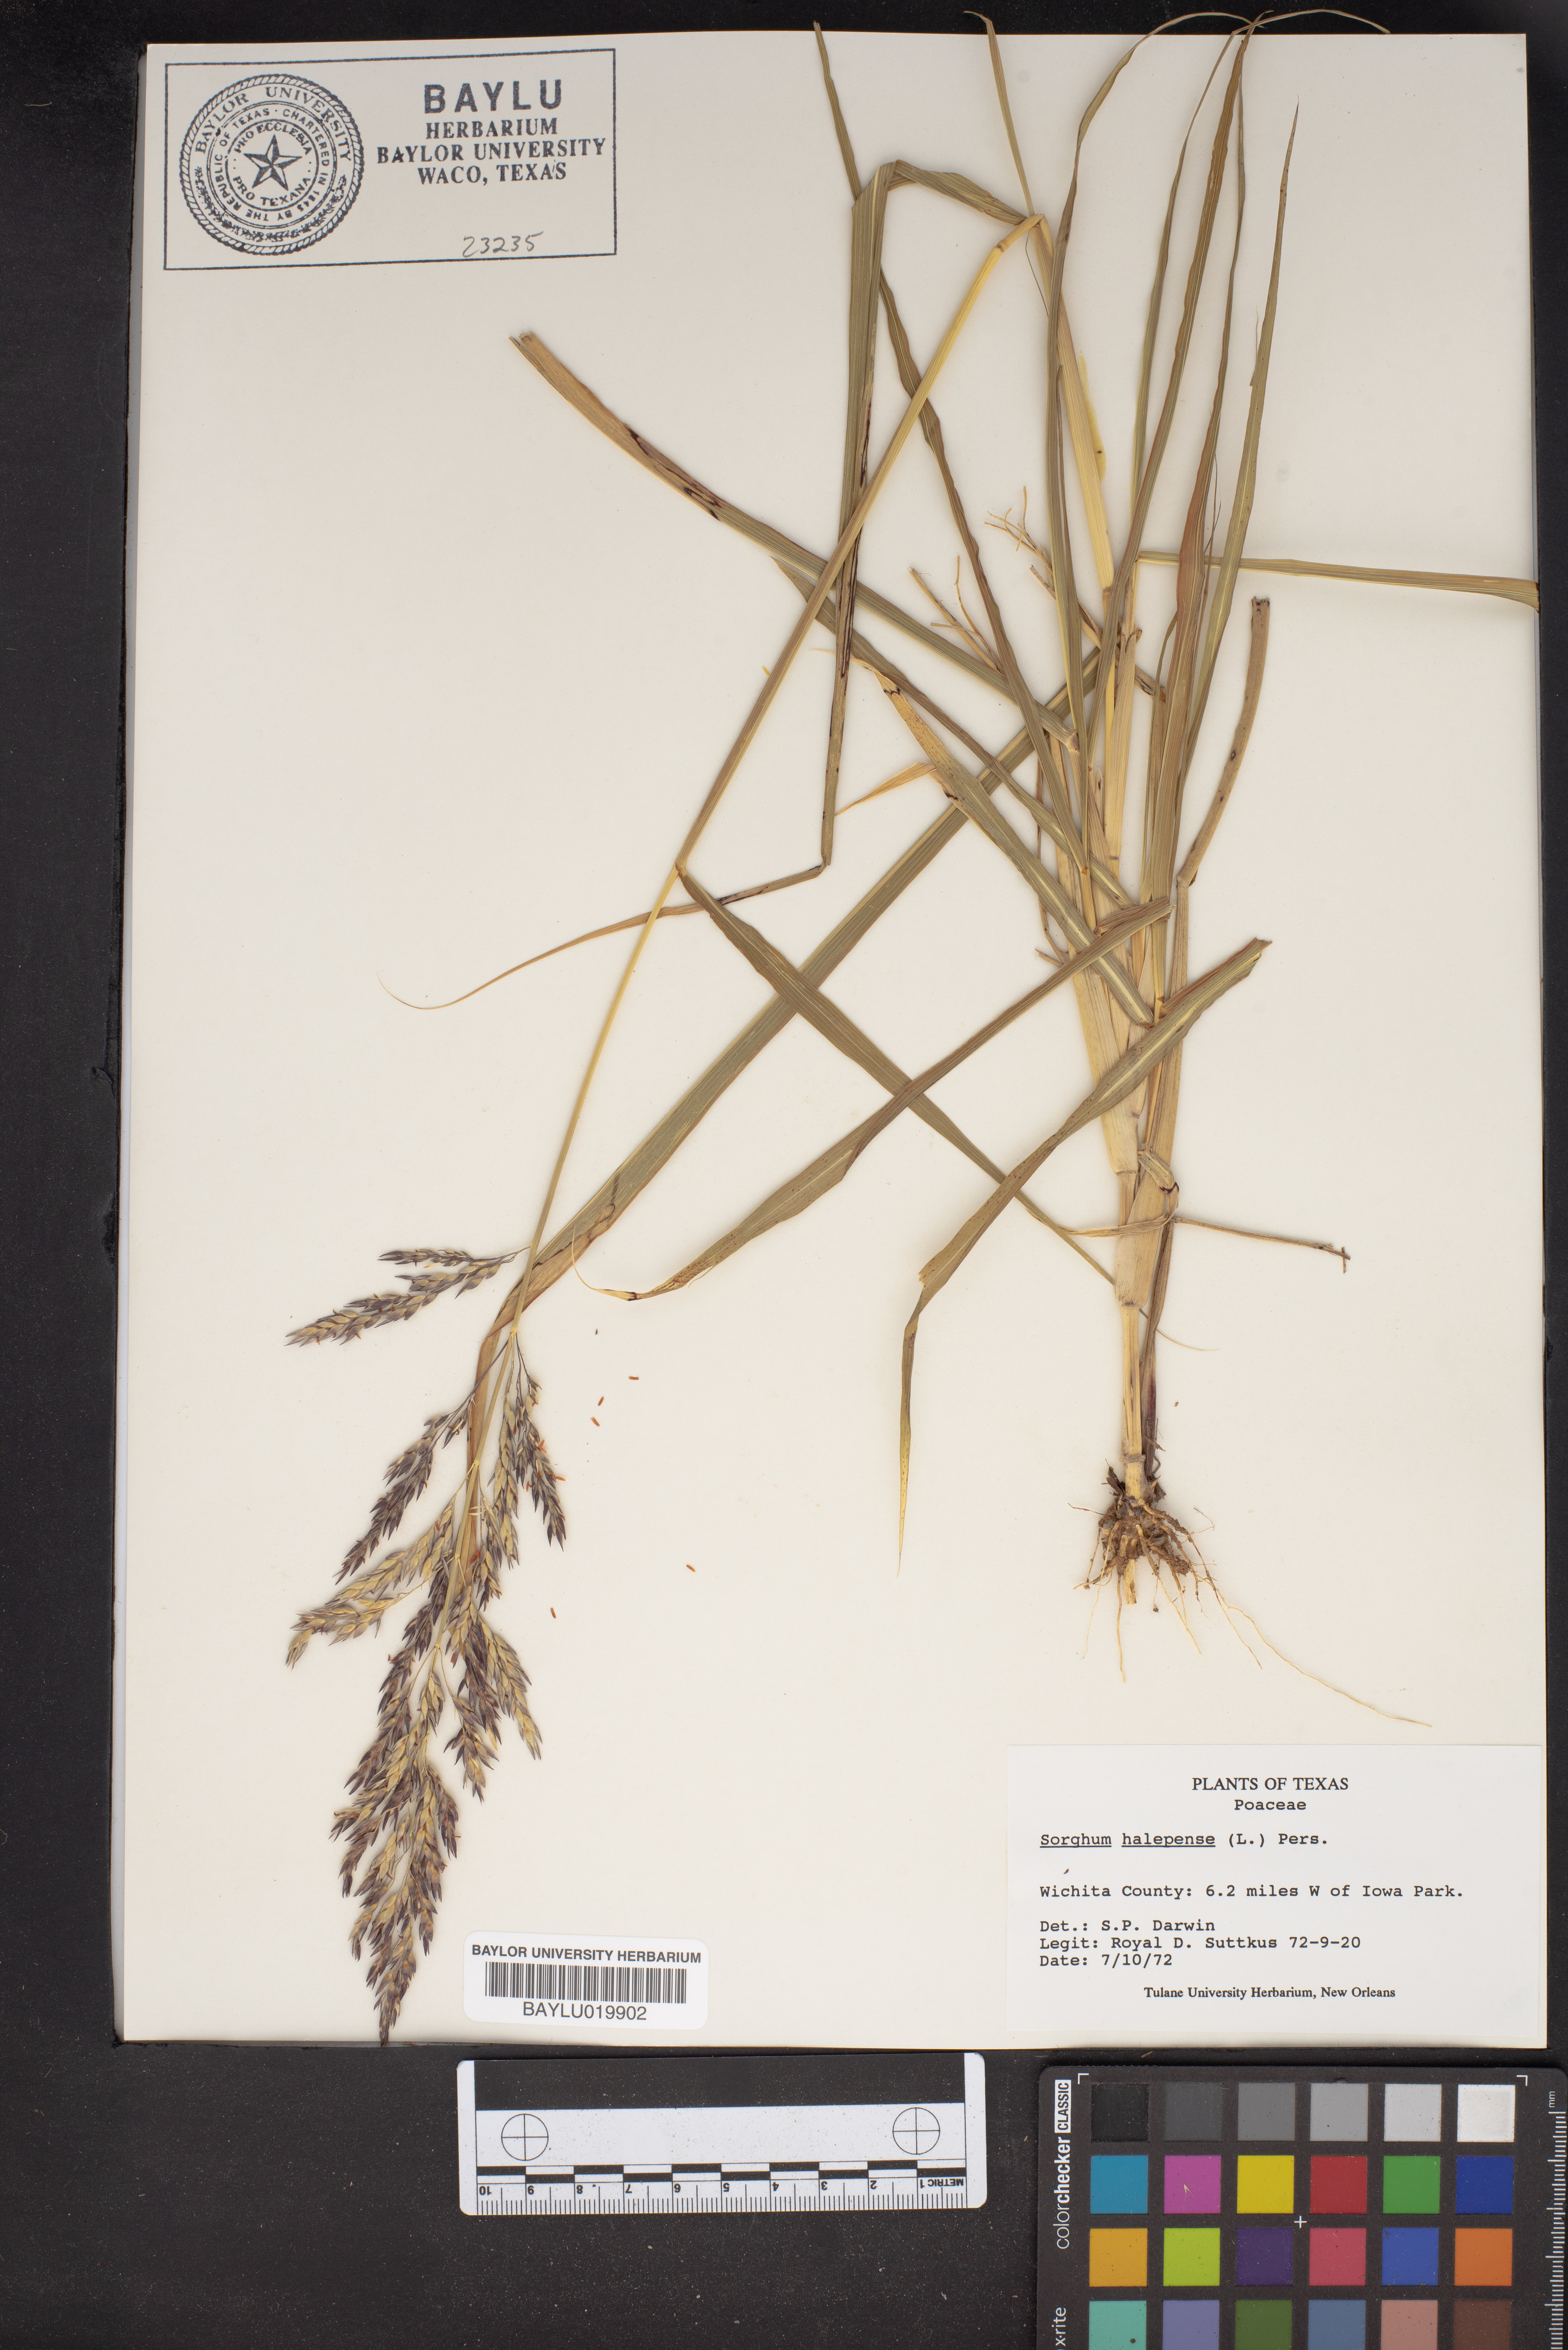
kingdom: Plantae
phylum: Tracheophyta
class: Liliopsida
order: Poales
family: Poaceae
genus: Sorghum
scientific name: Sorghum halepense
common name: Johnson-grass
